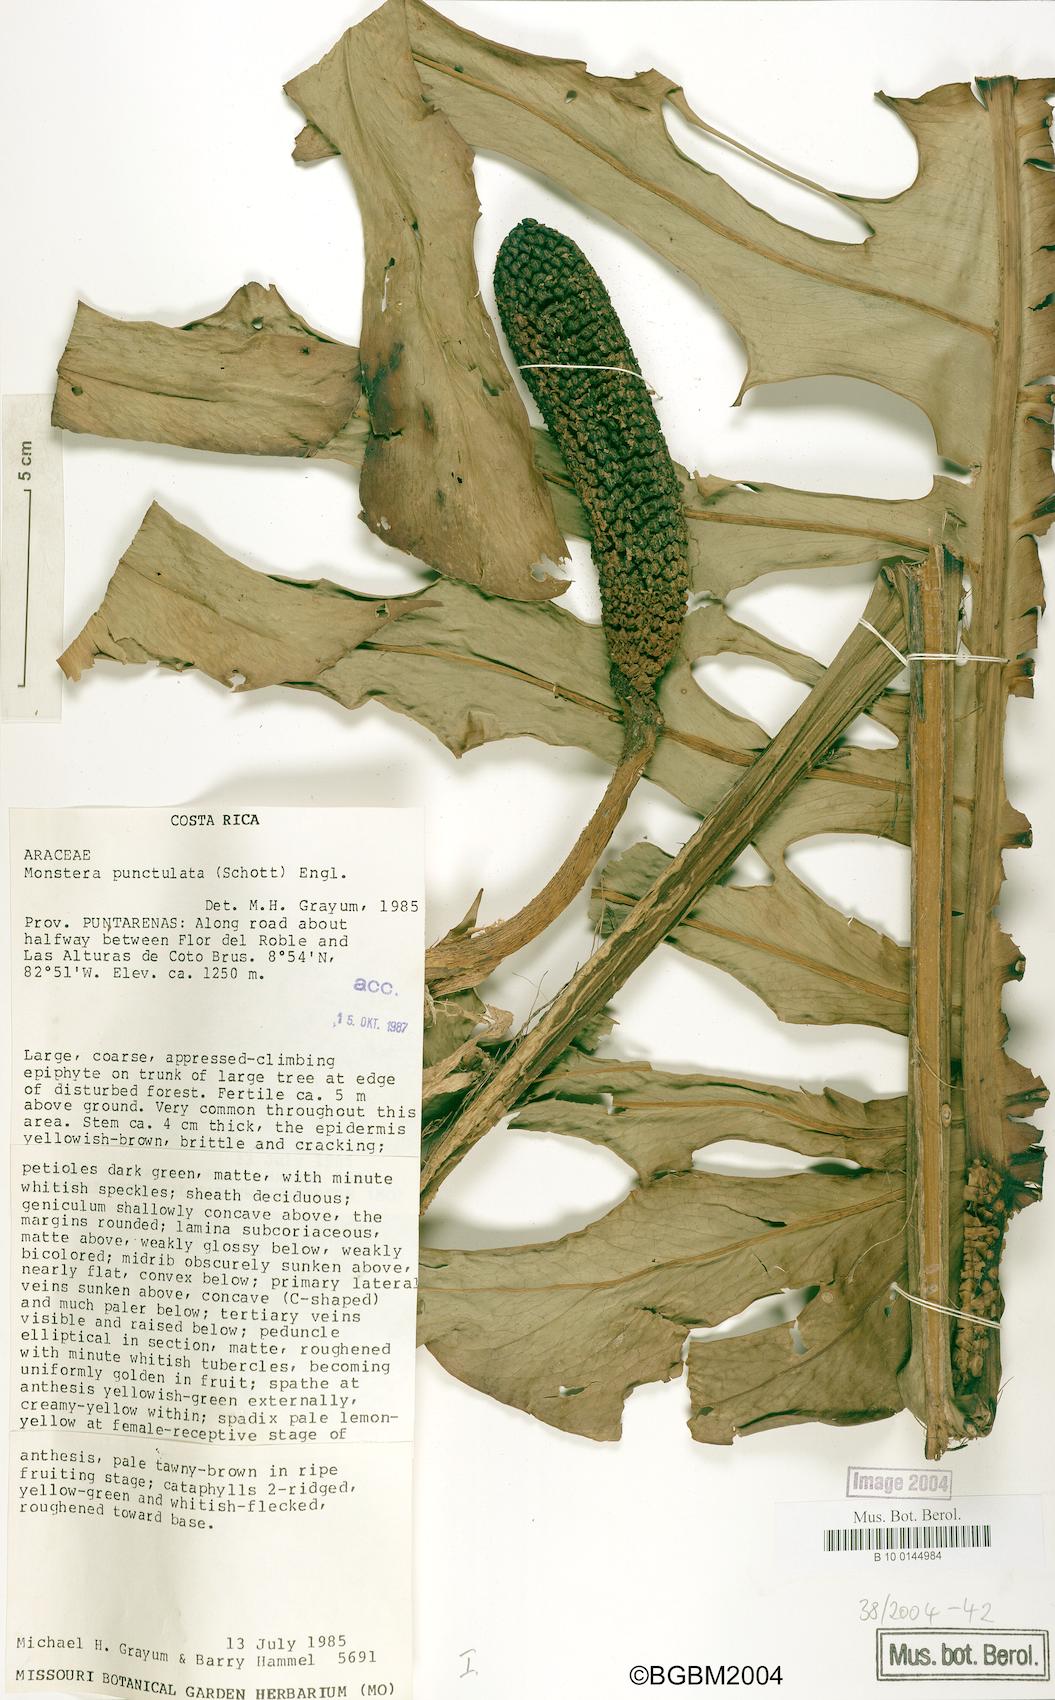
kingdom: Plantae
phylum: Tracheophyta
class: Liliopsida
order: Alismatales
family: Araceae
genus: Monstera
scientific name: Monstera punctulata
